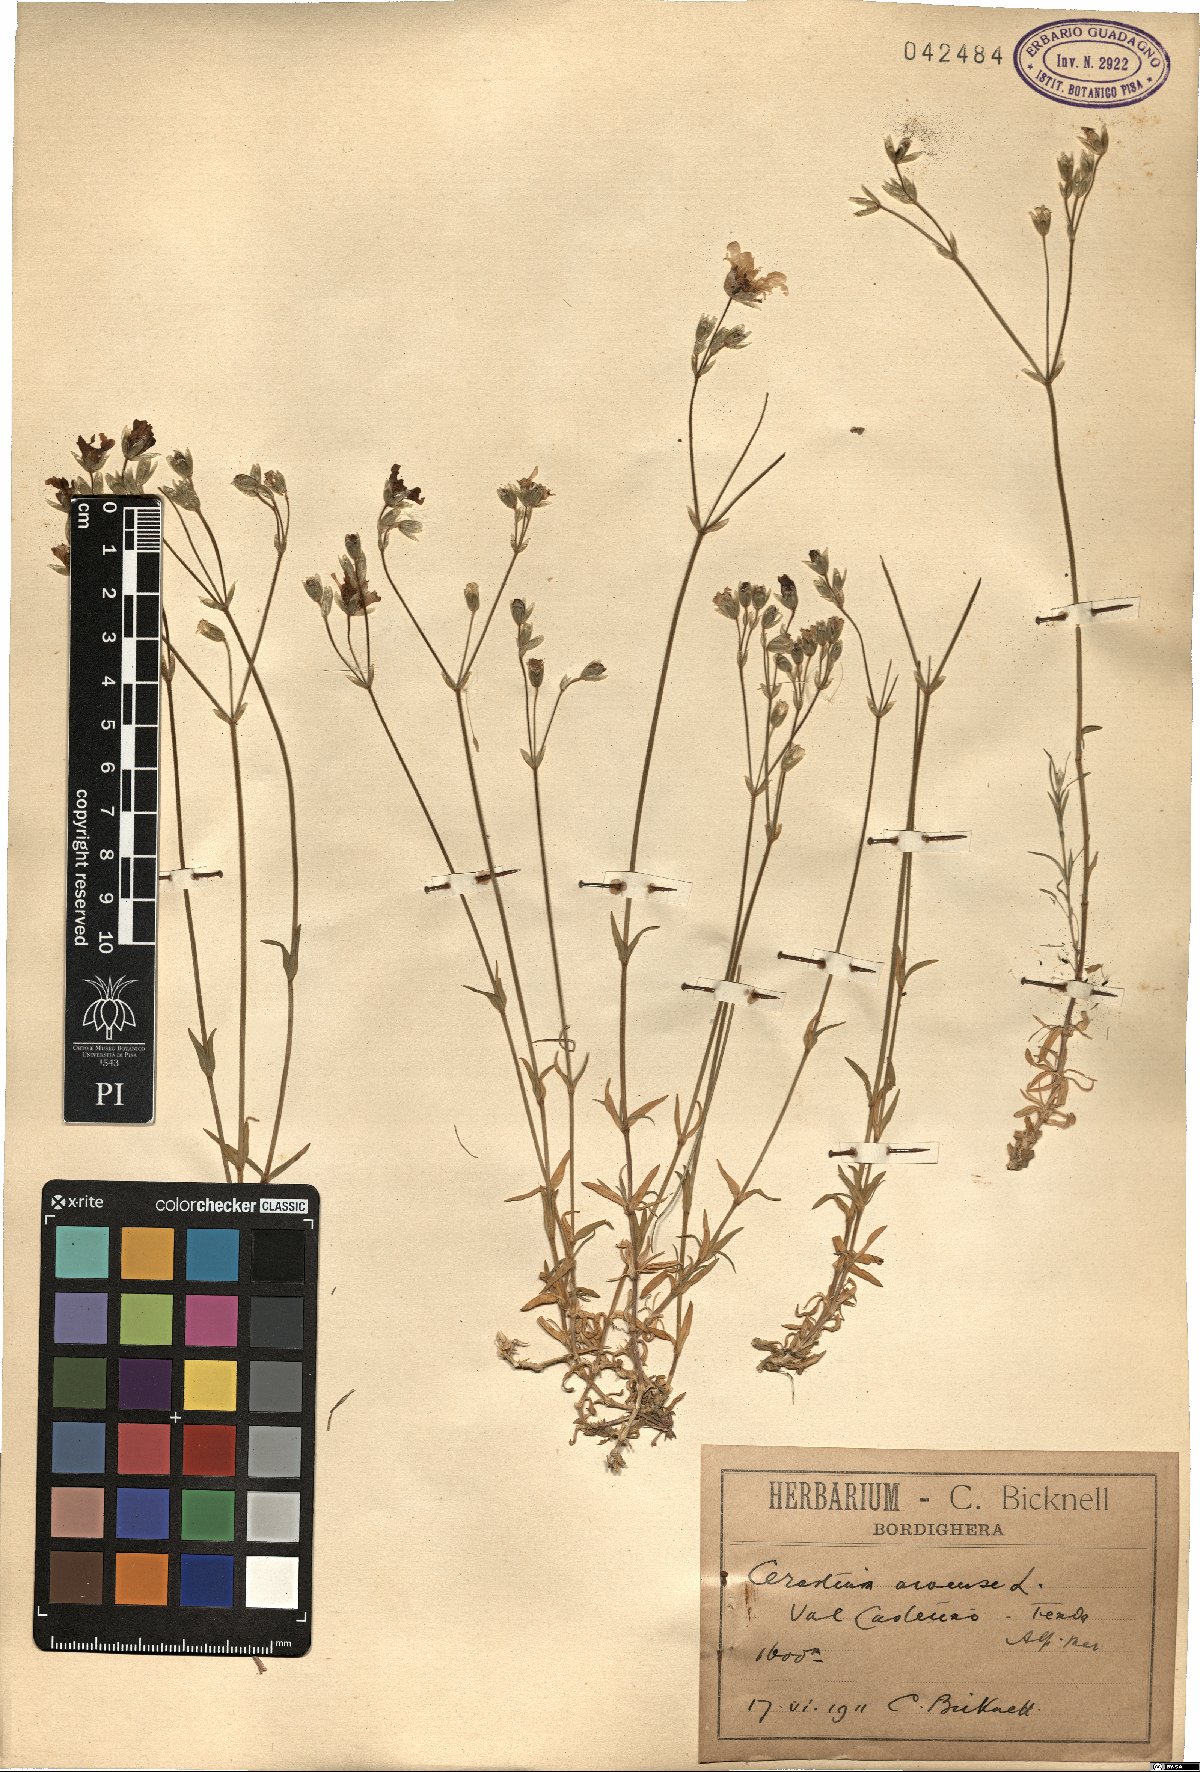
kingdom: Plantae
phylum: Tracheophyta
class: Magnoliopsida
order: Caryophyllales
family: Caryophyllaceae
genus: Cerastium
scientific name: Cerastium arvense
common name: Field mouse-ear
